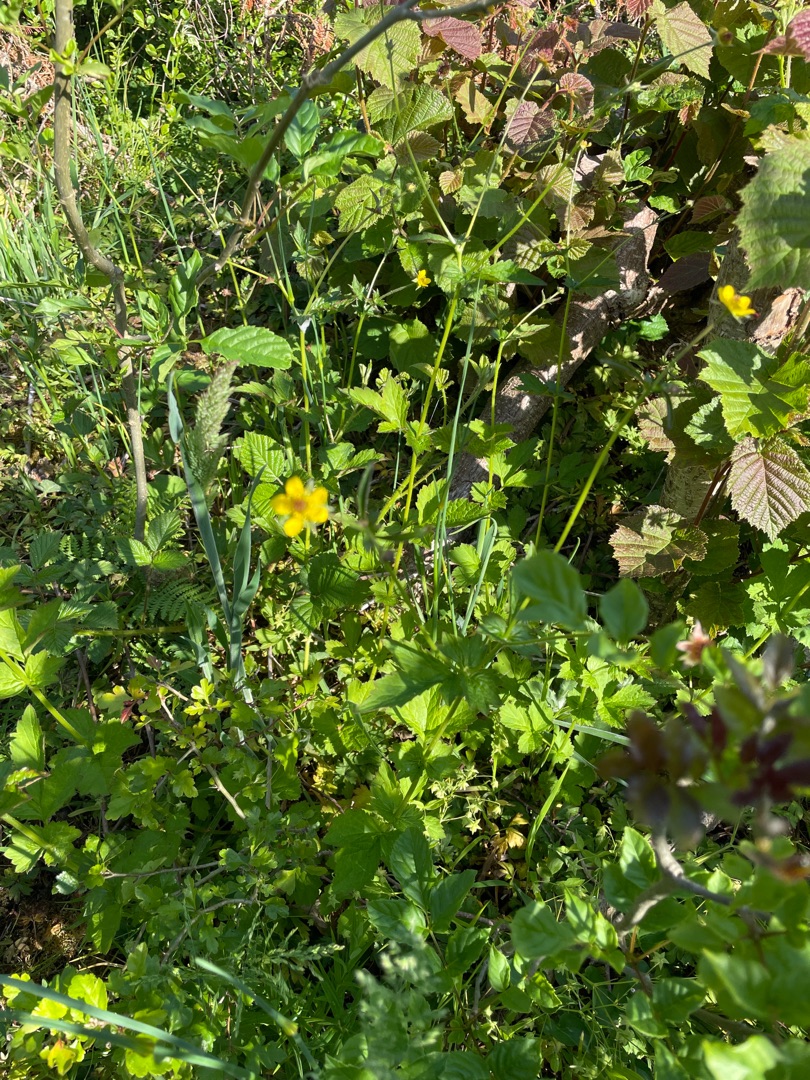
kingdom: Plantae
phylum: Tracheophyta
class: Magnoliopsida
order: Rosales
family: Rosaceae
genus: Geum
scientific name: Geum urbanum
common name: Feber-nellikerod
